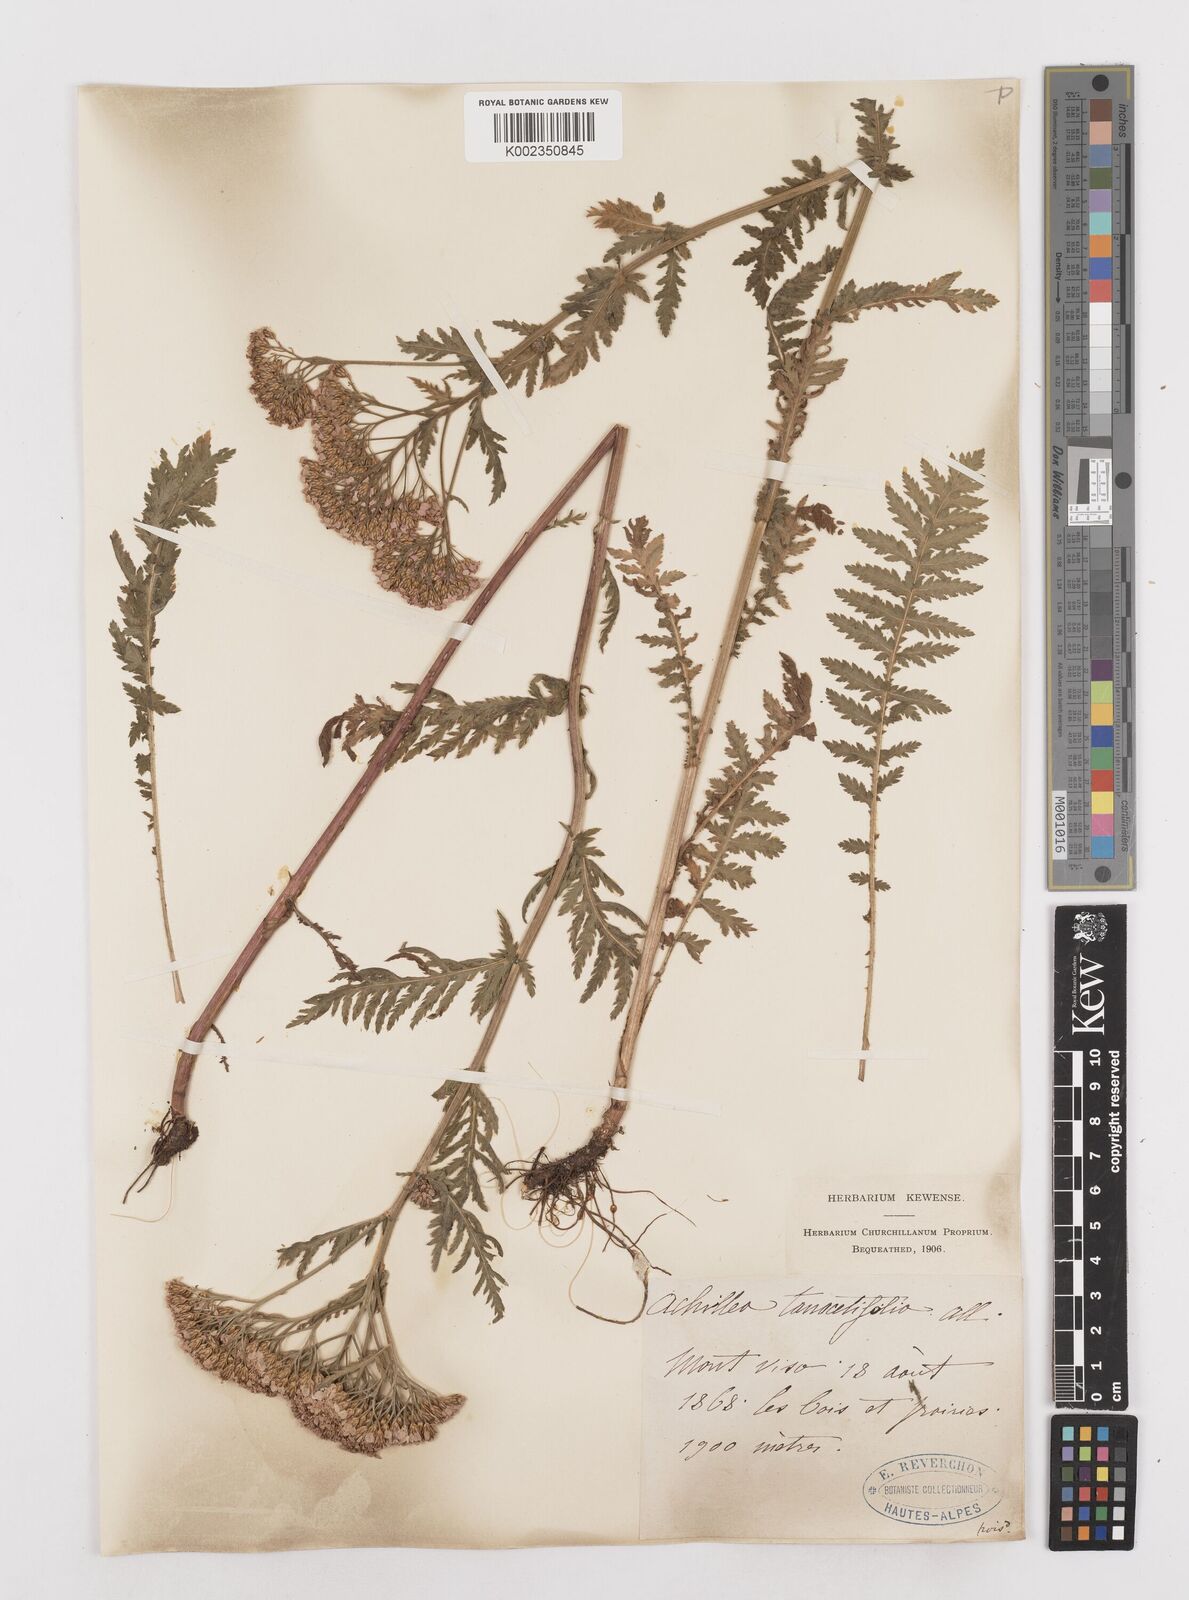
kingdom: Plantae
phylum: Tracheophyta
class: Magnoliopsida
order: Asterales
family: Asteraceae
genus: Achillea
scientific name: Achillea distans
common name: Tall yarrow
